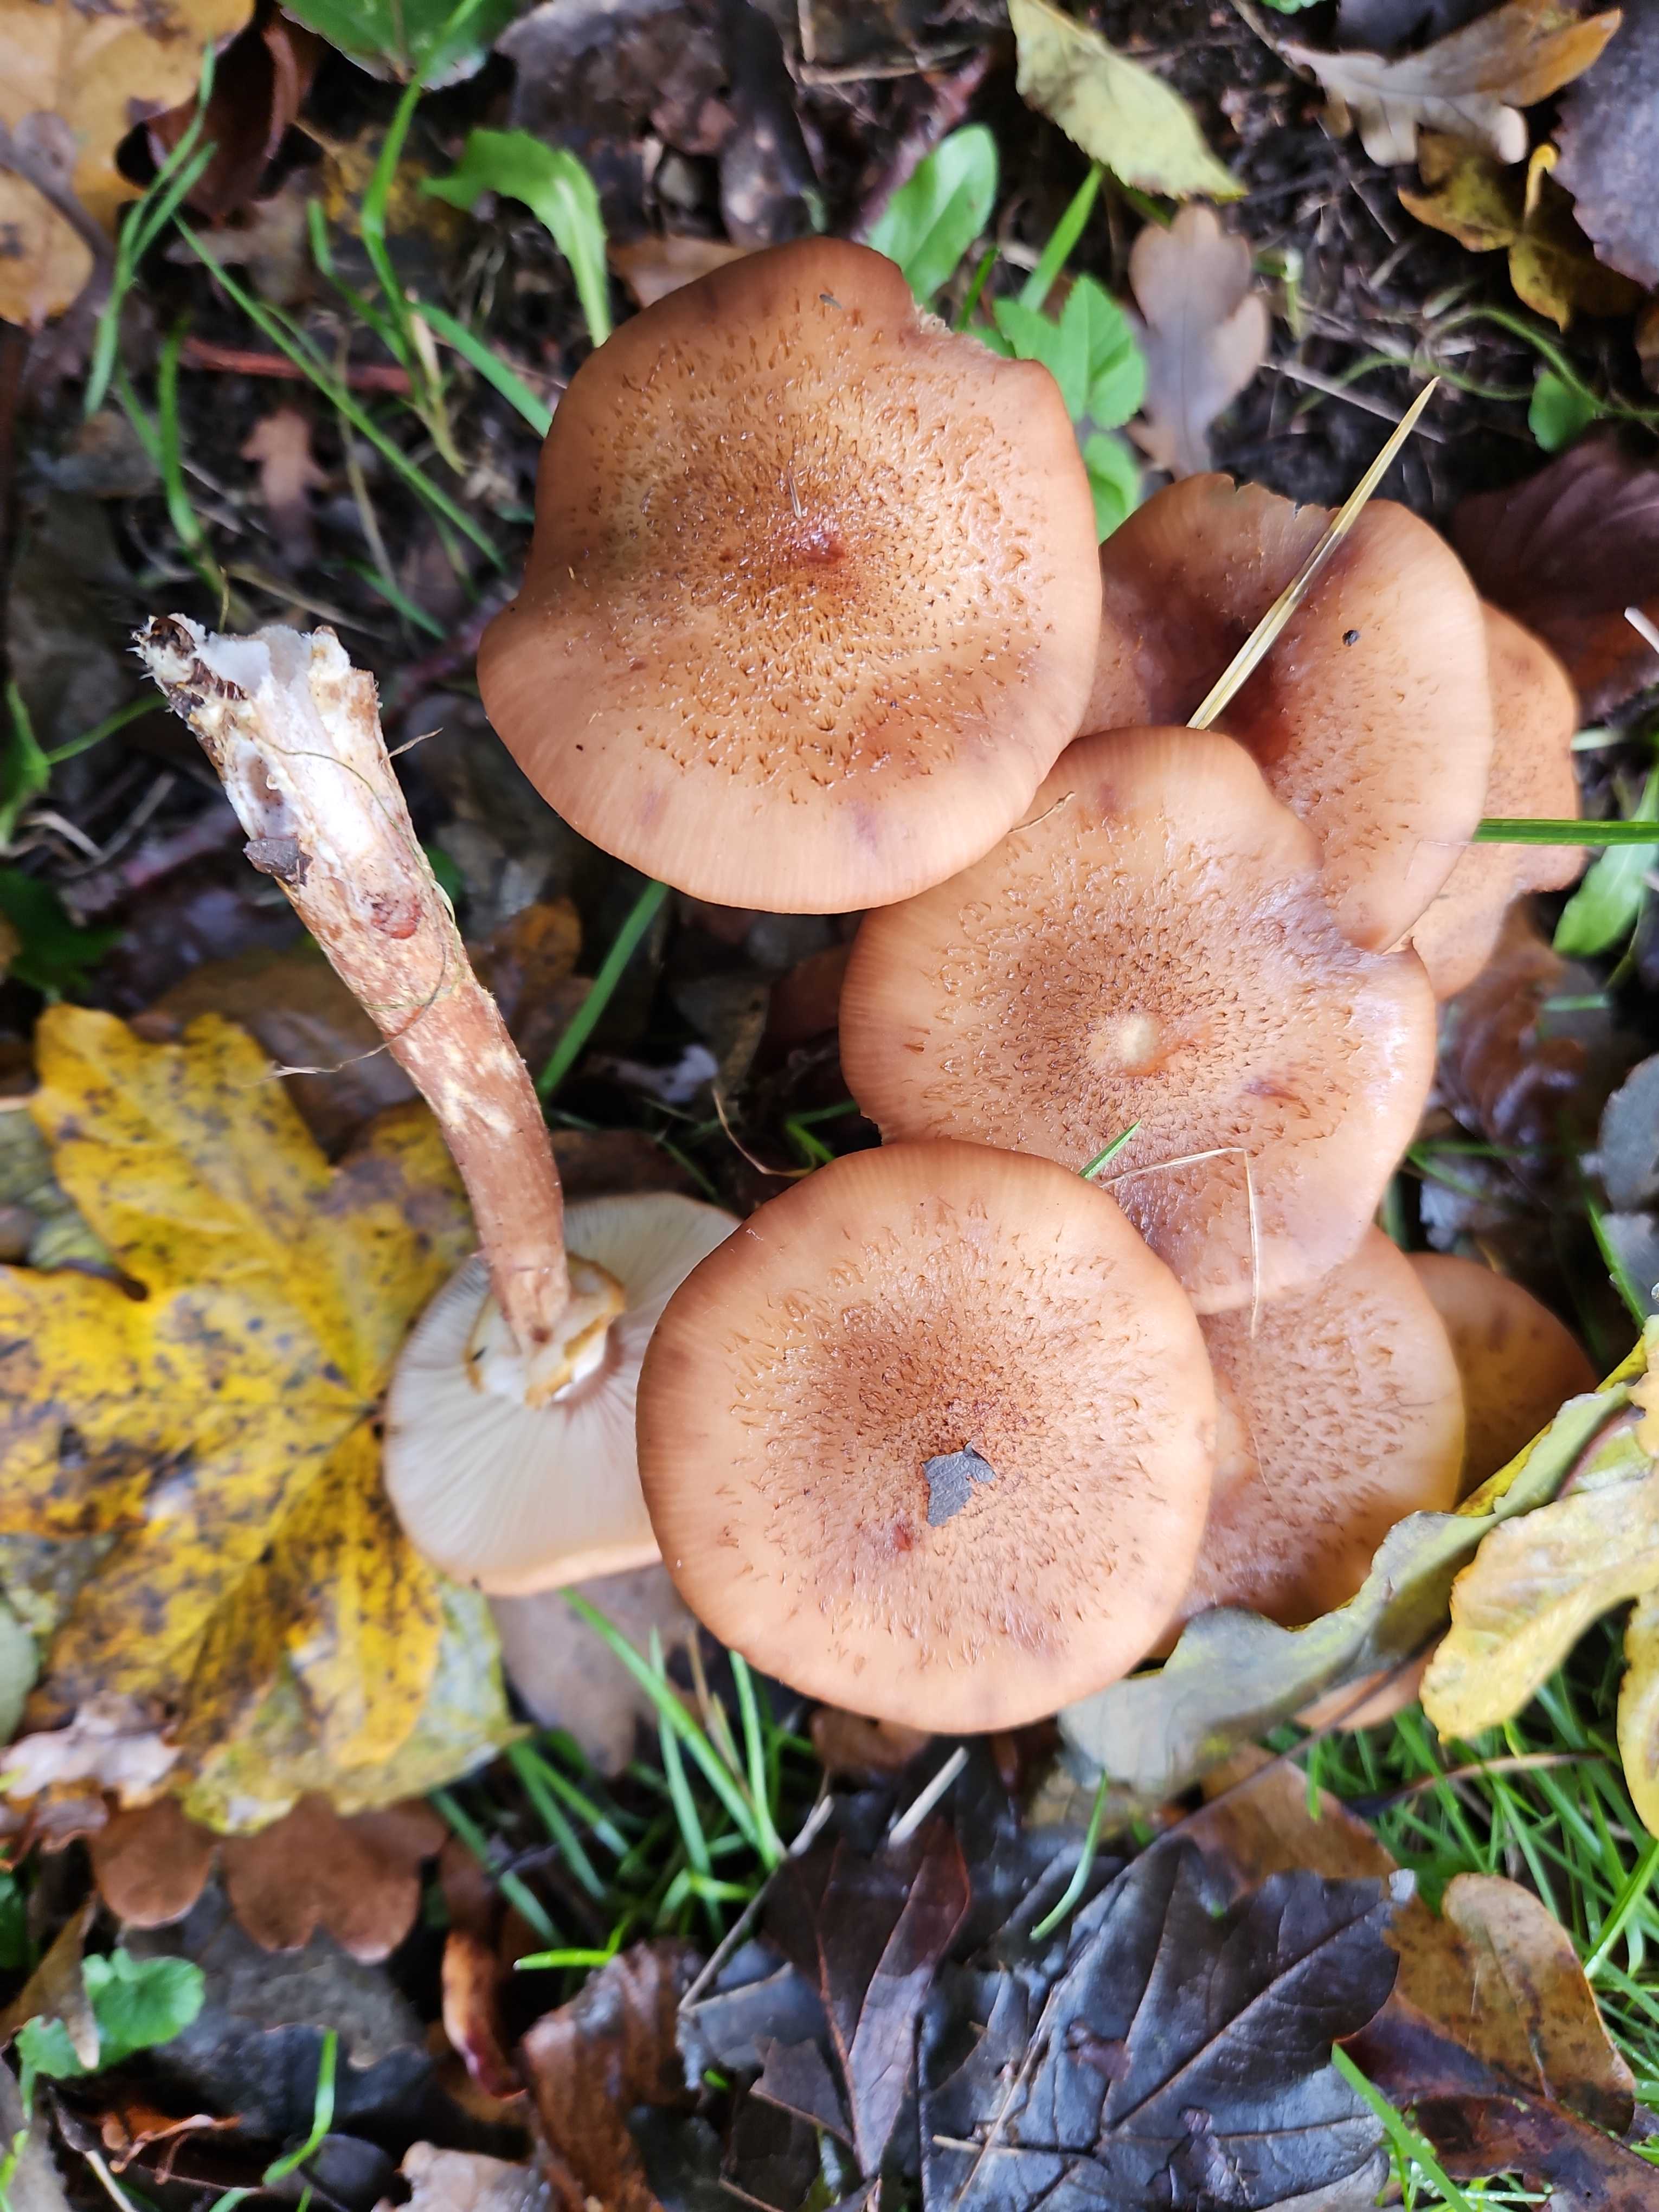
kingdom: Fungi
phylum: Basidiomycota
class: Agaricomycetes
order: Agaricales
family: Physalacriaceae
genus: Armillaria
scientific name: Armillaria lutea
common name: køllestokket honningsvamp
